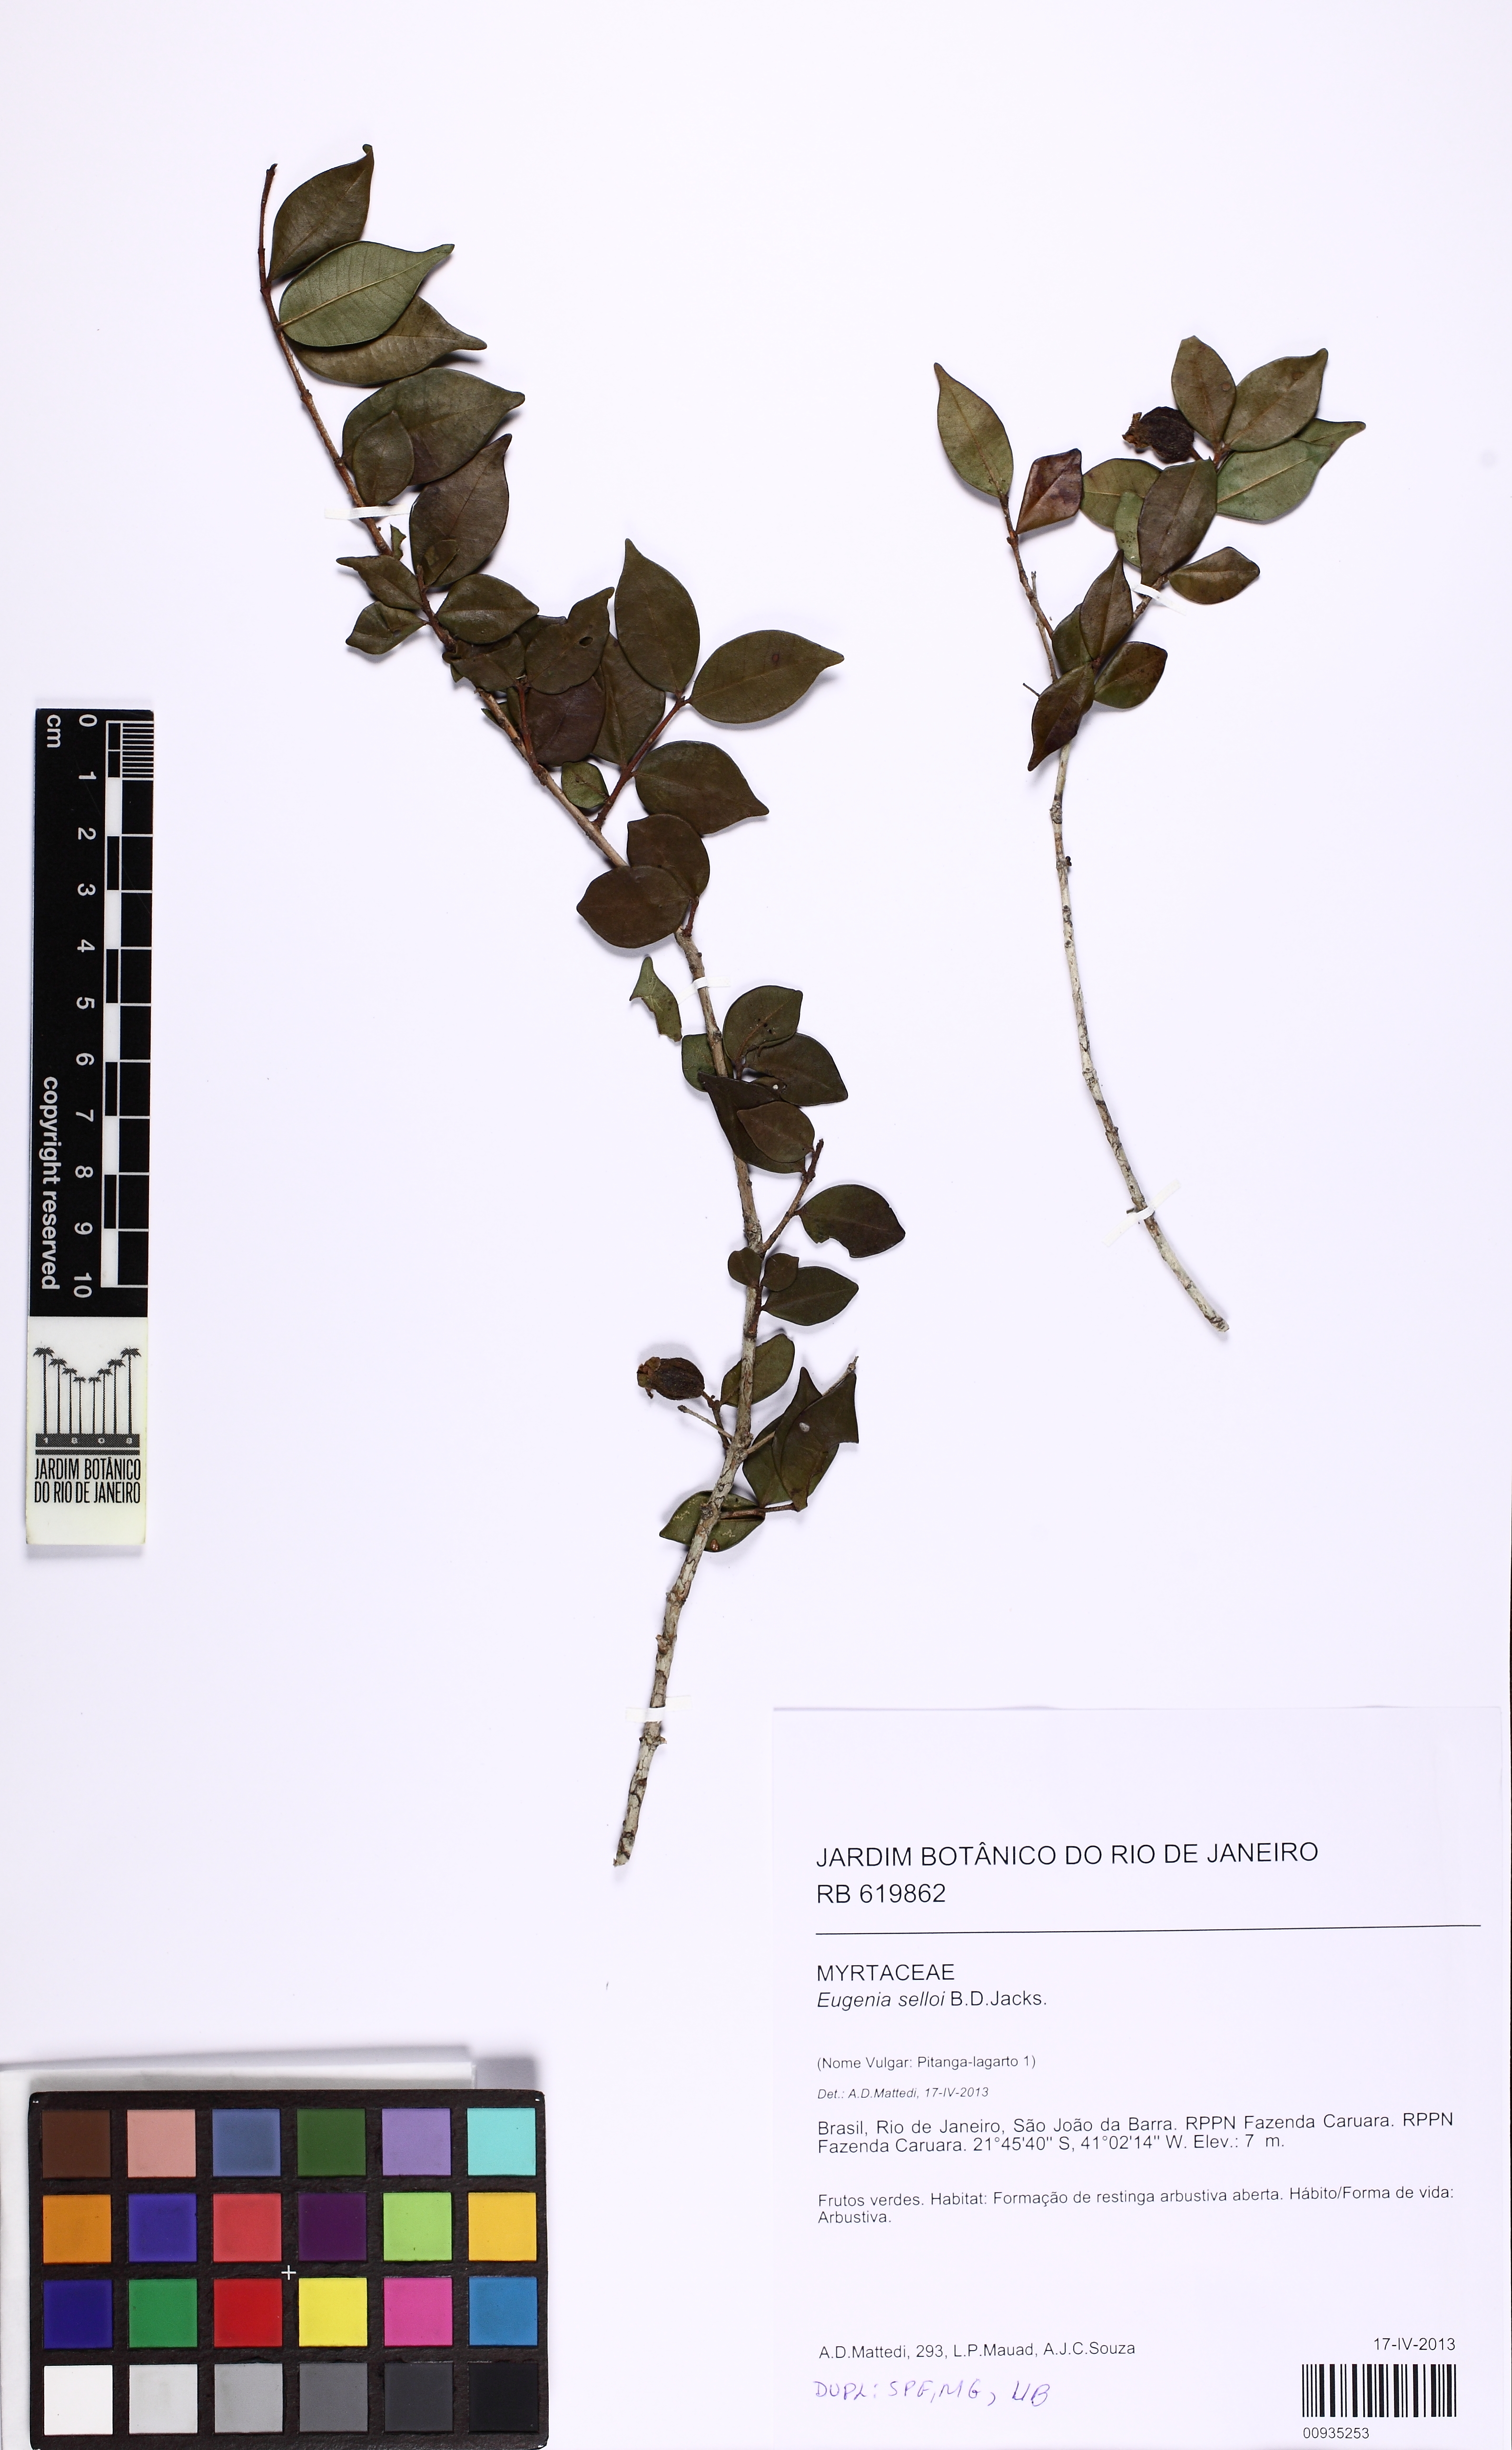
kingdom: Plantae
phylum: Tracheophyta
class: Magnoliopsida
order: Myrtales
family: Myrtaceae
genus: Eugenia
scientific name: Eugenia selloi
